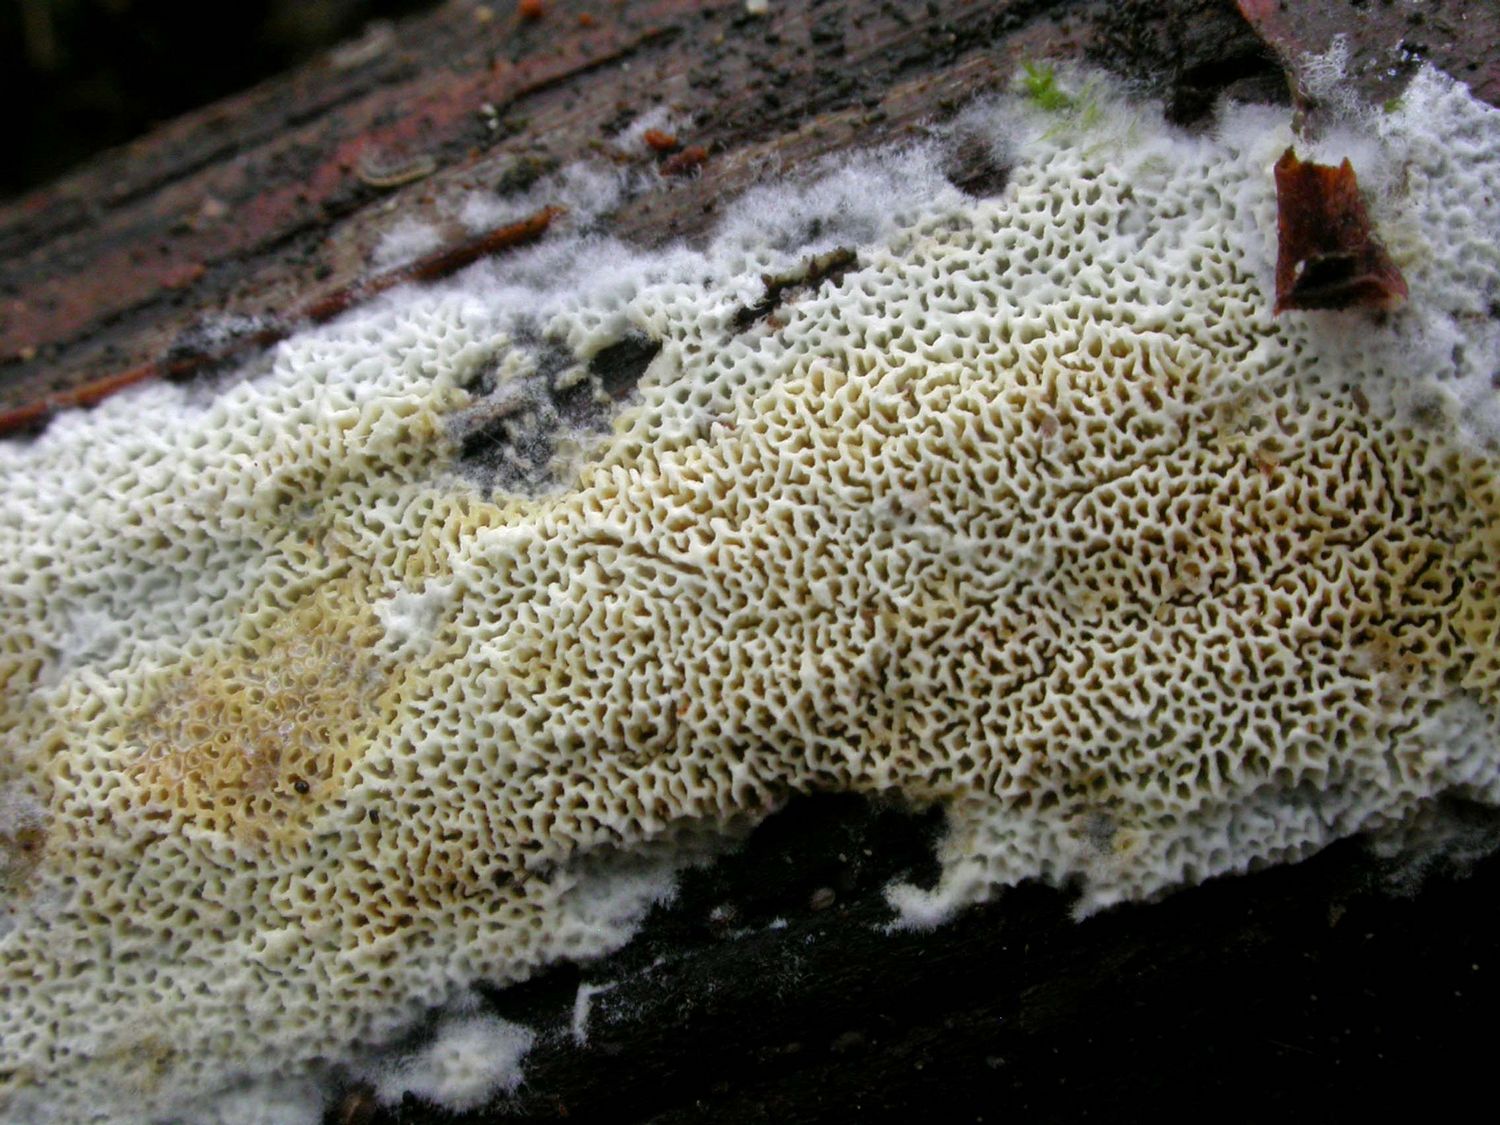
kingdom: Fungi
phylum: Basidiomycota
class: Agaricomycetes
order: Hymenochaetales
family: Schizoporaceae
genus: Xylodon
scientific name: Xylodon subtropicus
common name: labyrint-tandsvamp
